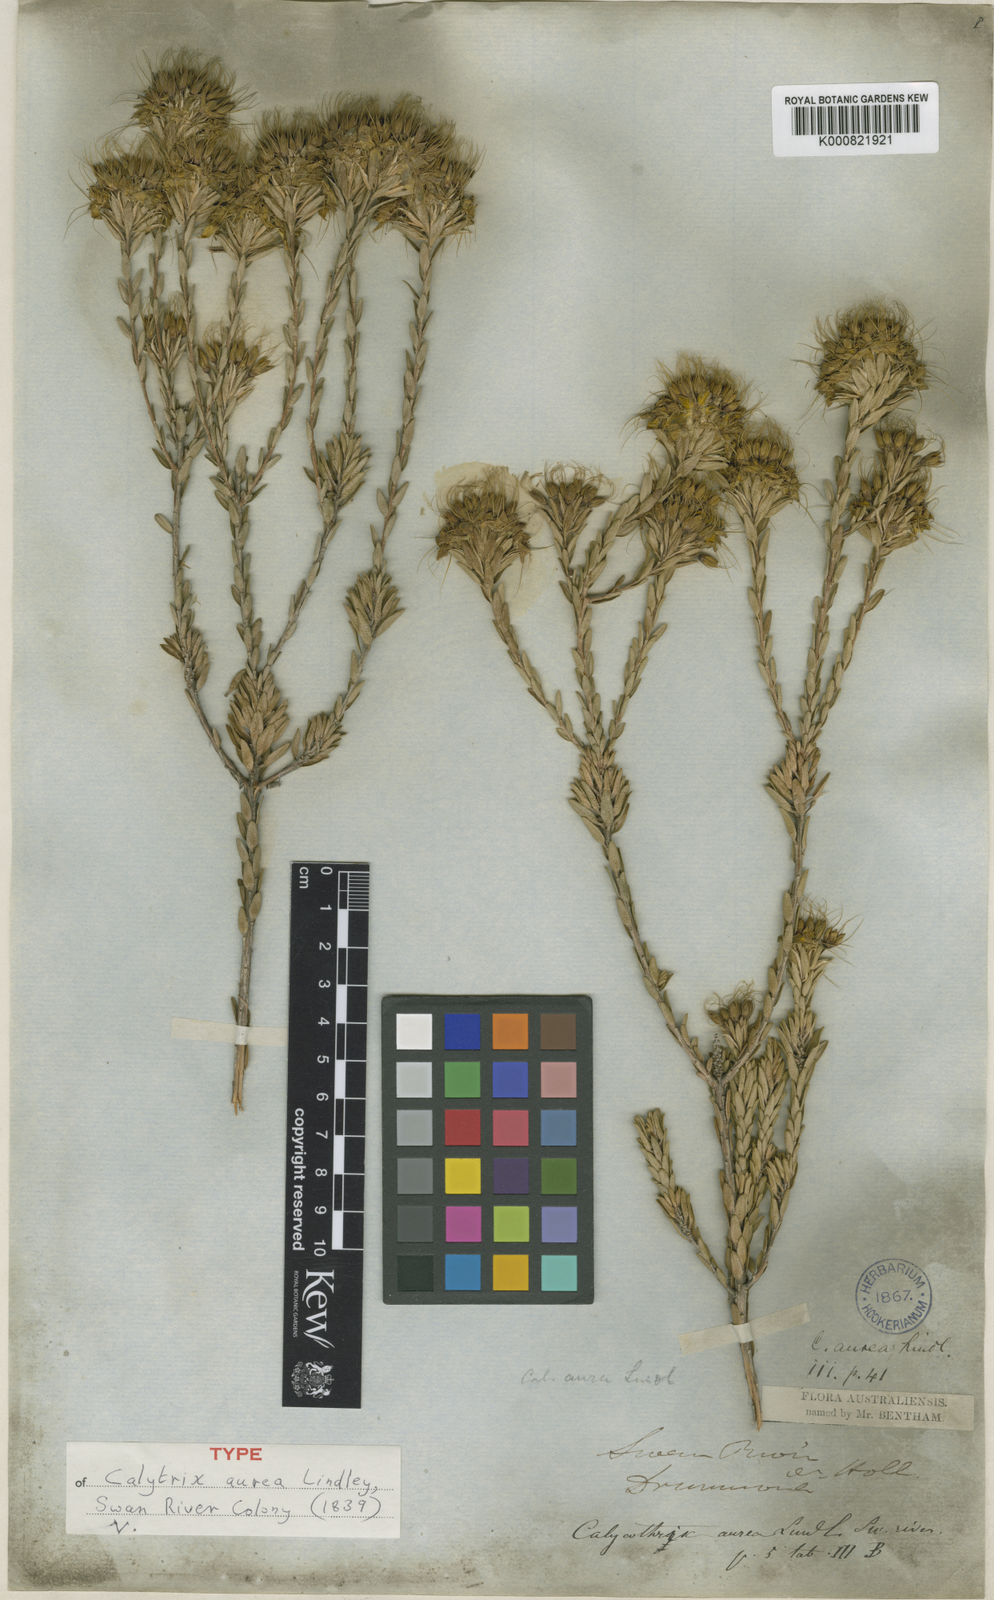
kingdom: Plantae
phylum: Tracheophyta
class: Magnoliopsida
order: Myrtales
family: Myrtaceae
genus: Calytrix
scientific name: Calytrix aurea
